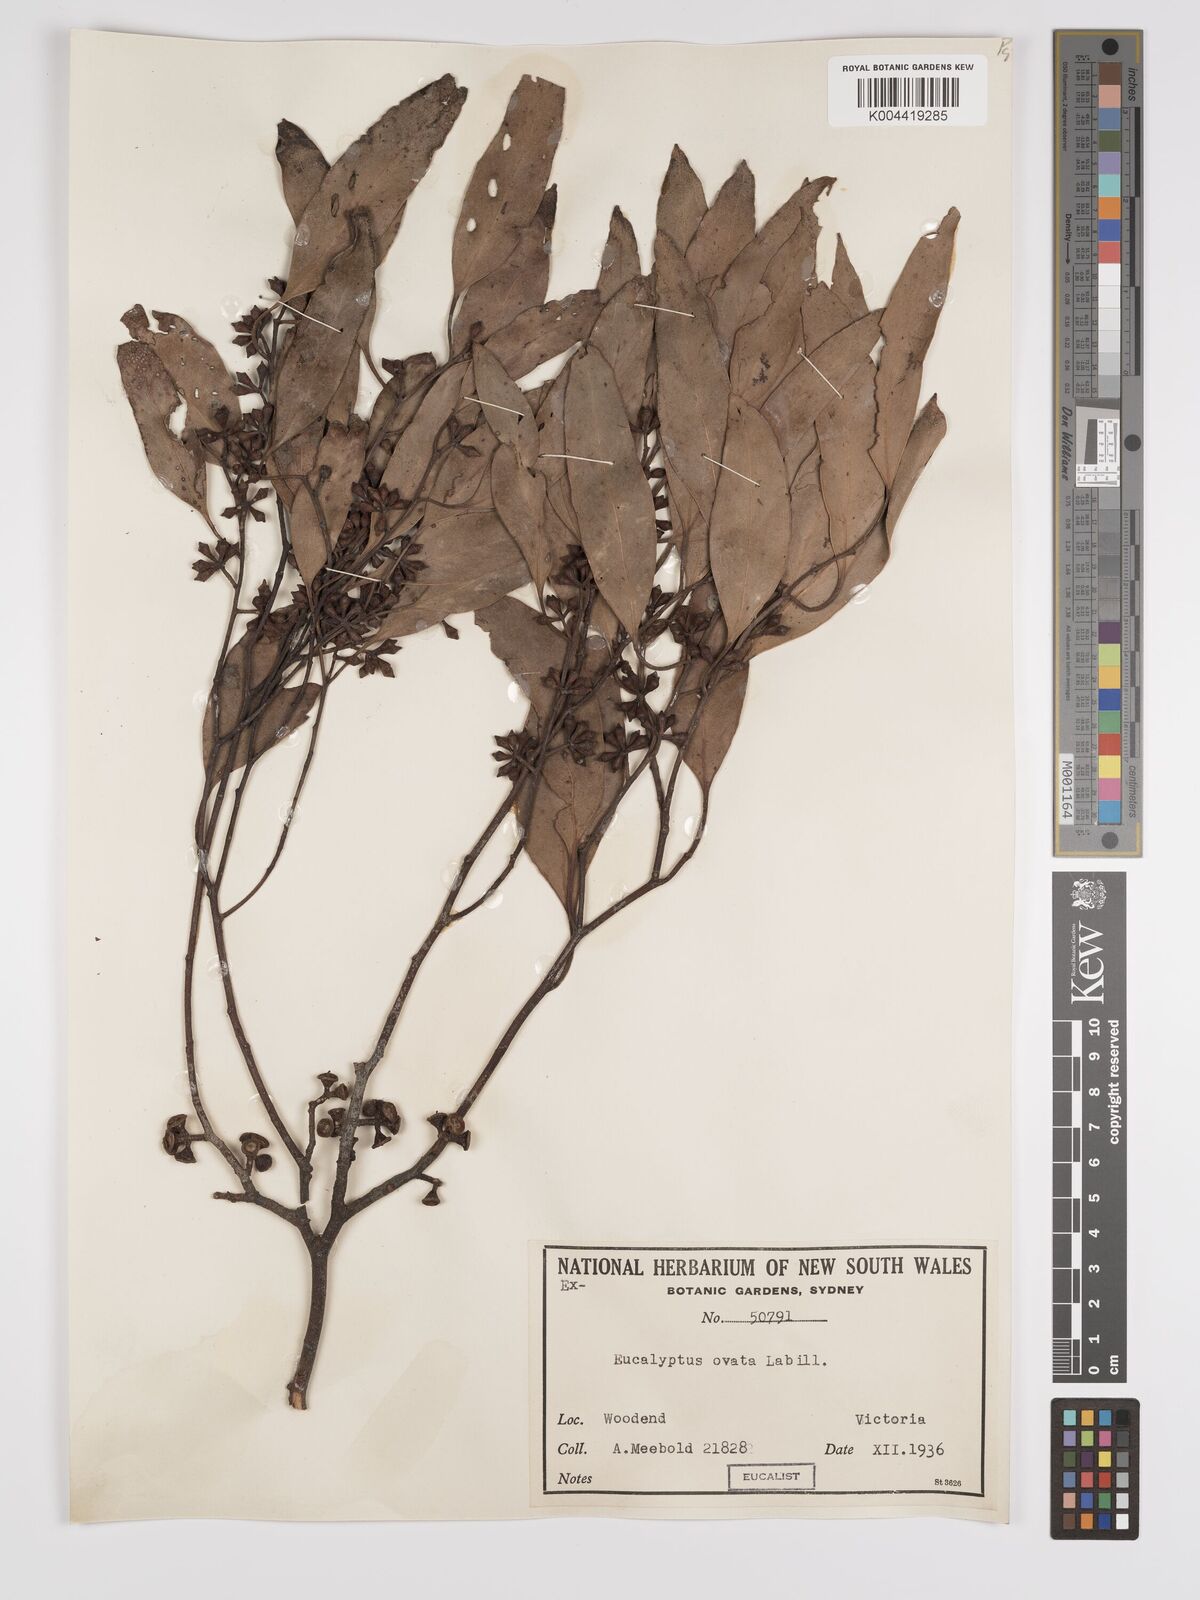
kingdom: Plantae
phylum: Tracheophyta
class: Magnoliopsida
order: Myrtales
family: Myrtaceae
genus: Eucalyptus
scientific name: Eucalyptus ovata
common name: Black-gum
